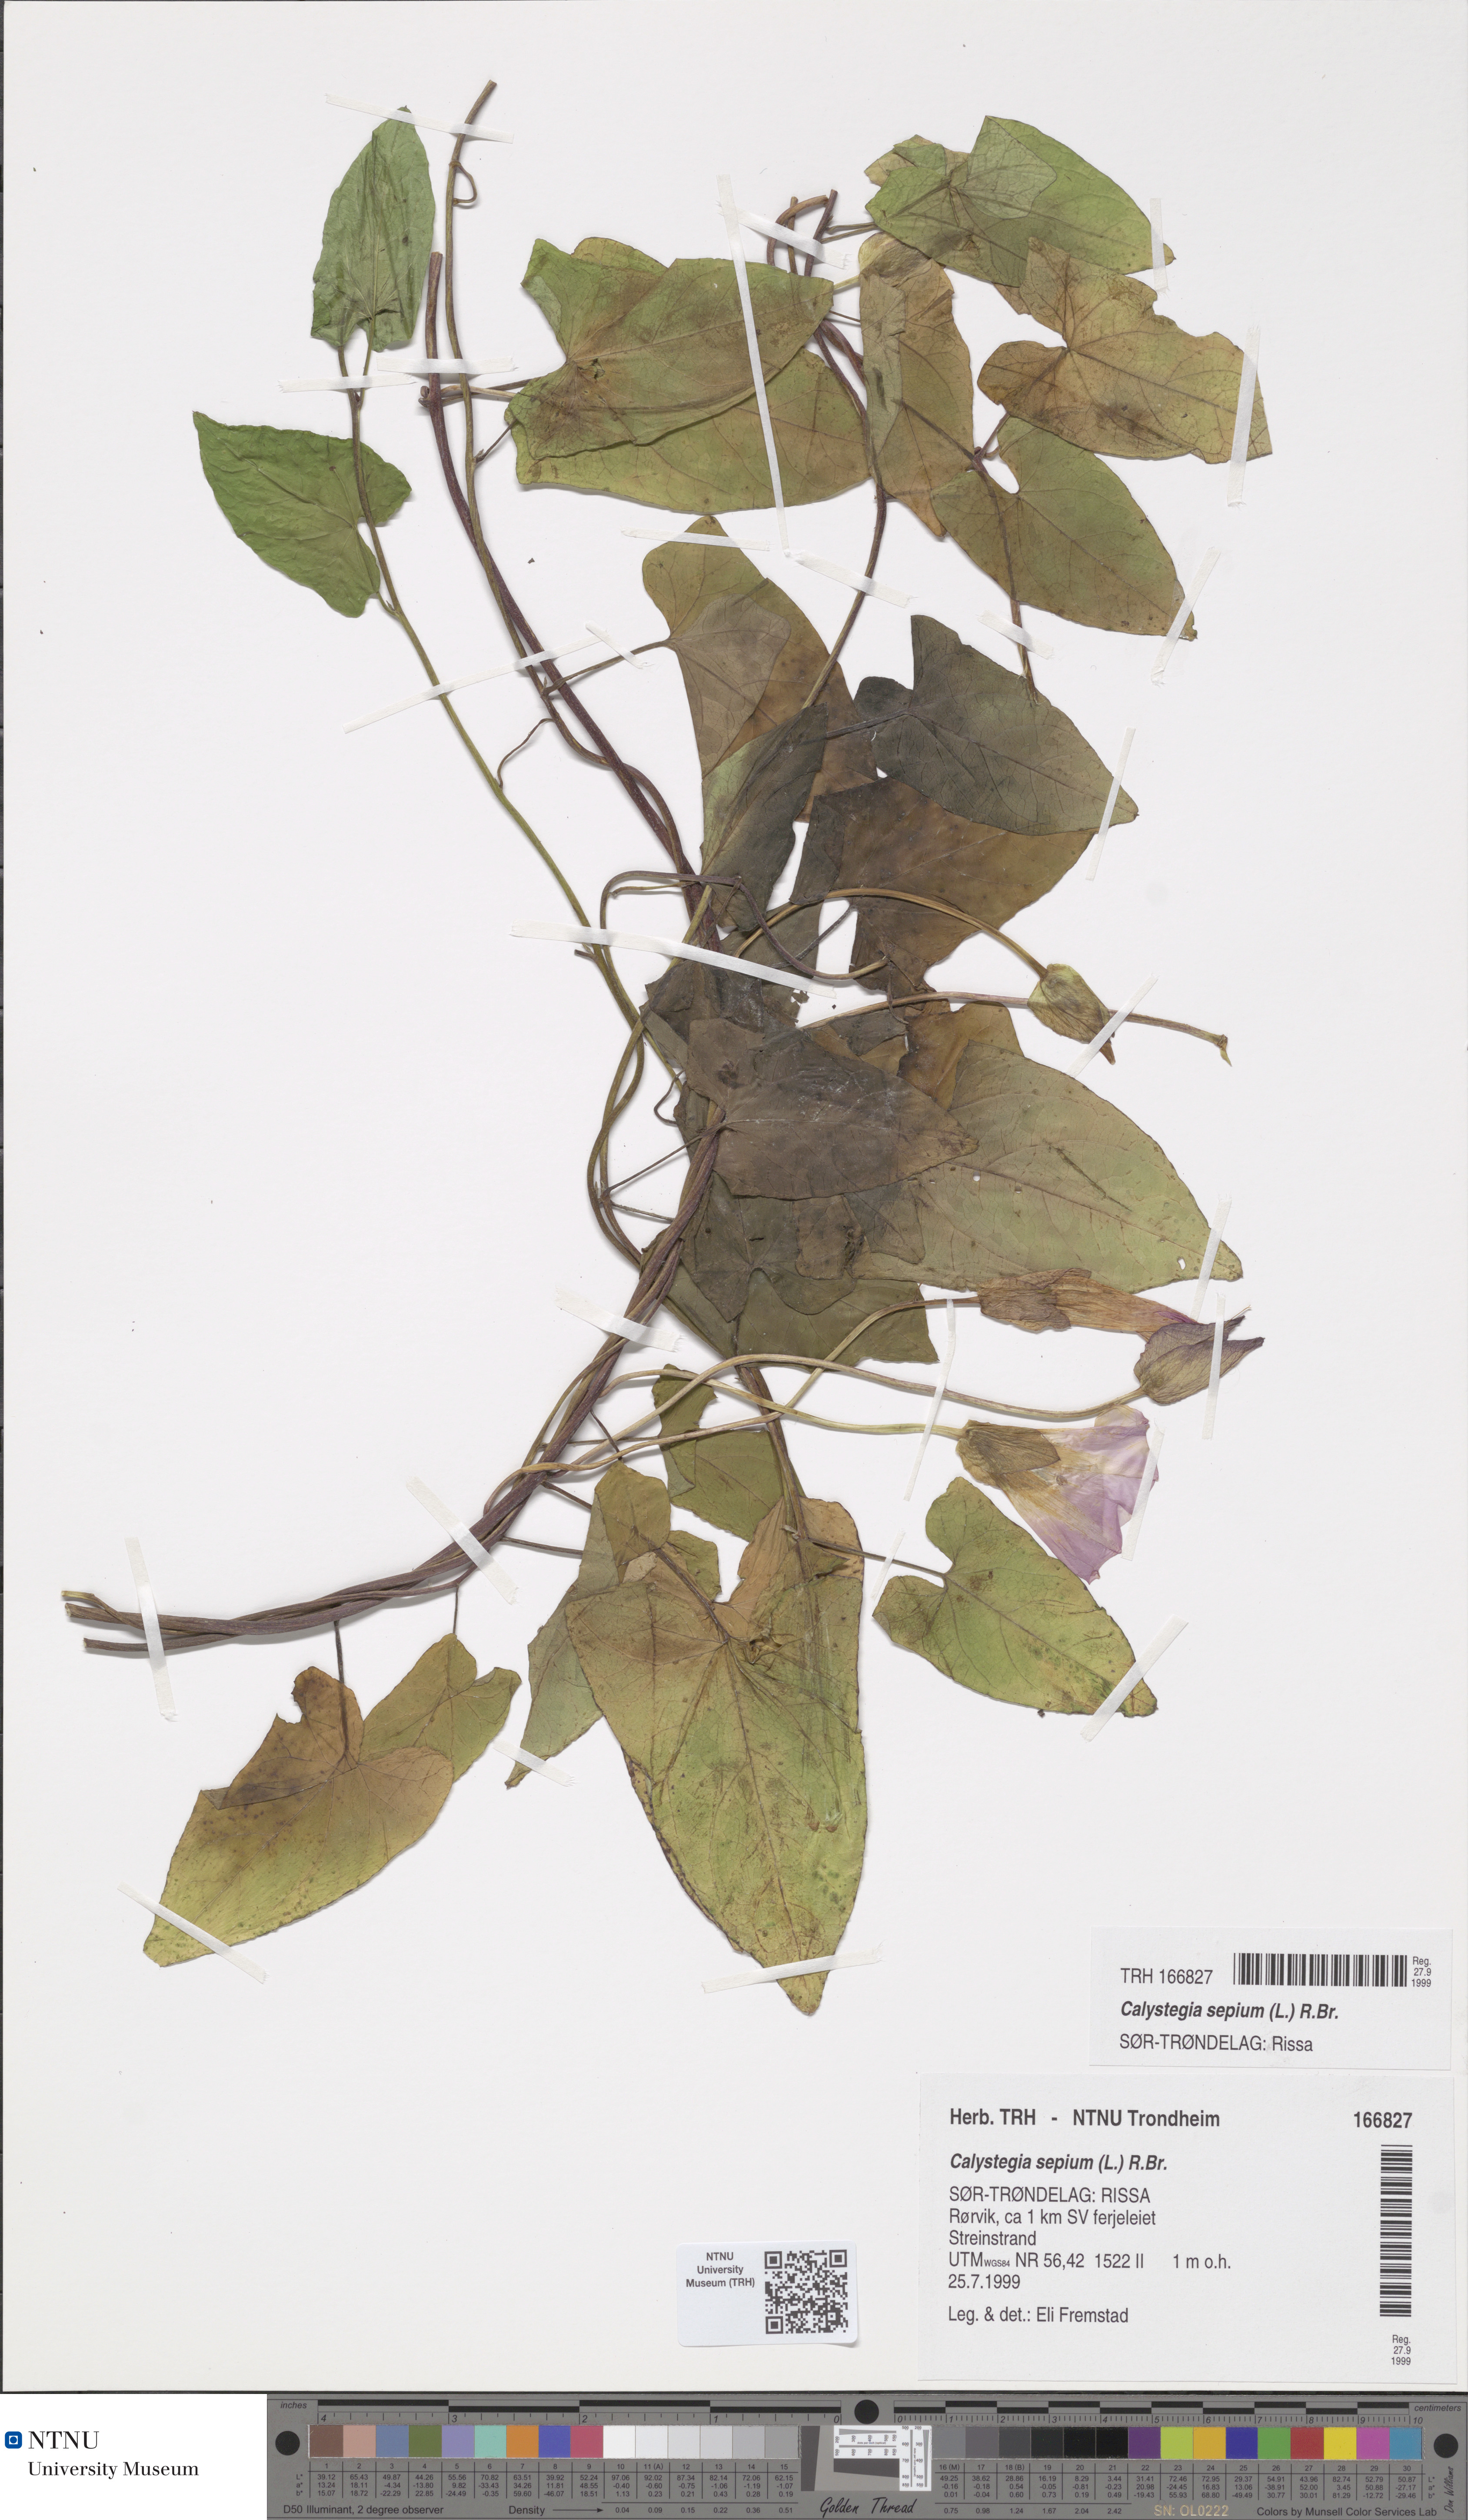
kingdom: Plantae
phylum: Tracheophyta
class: Magnoliopsida
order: Solanales
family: Convolvulaceae
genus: Calystegia
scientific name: Calystegia sepium
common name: Hedge bindweed
